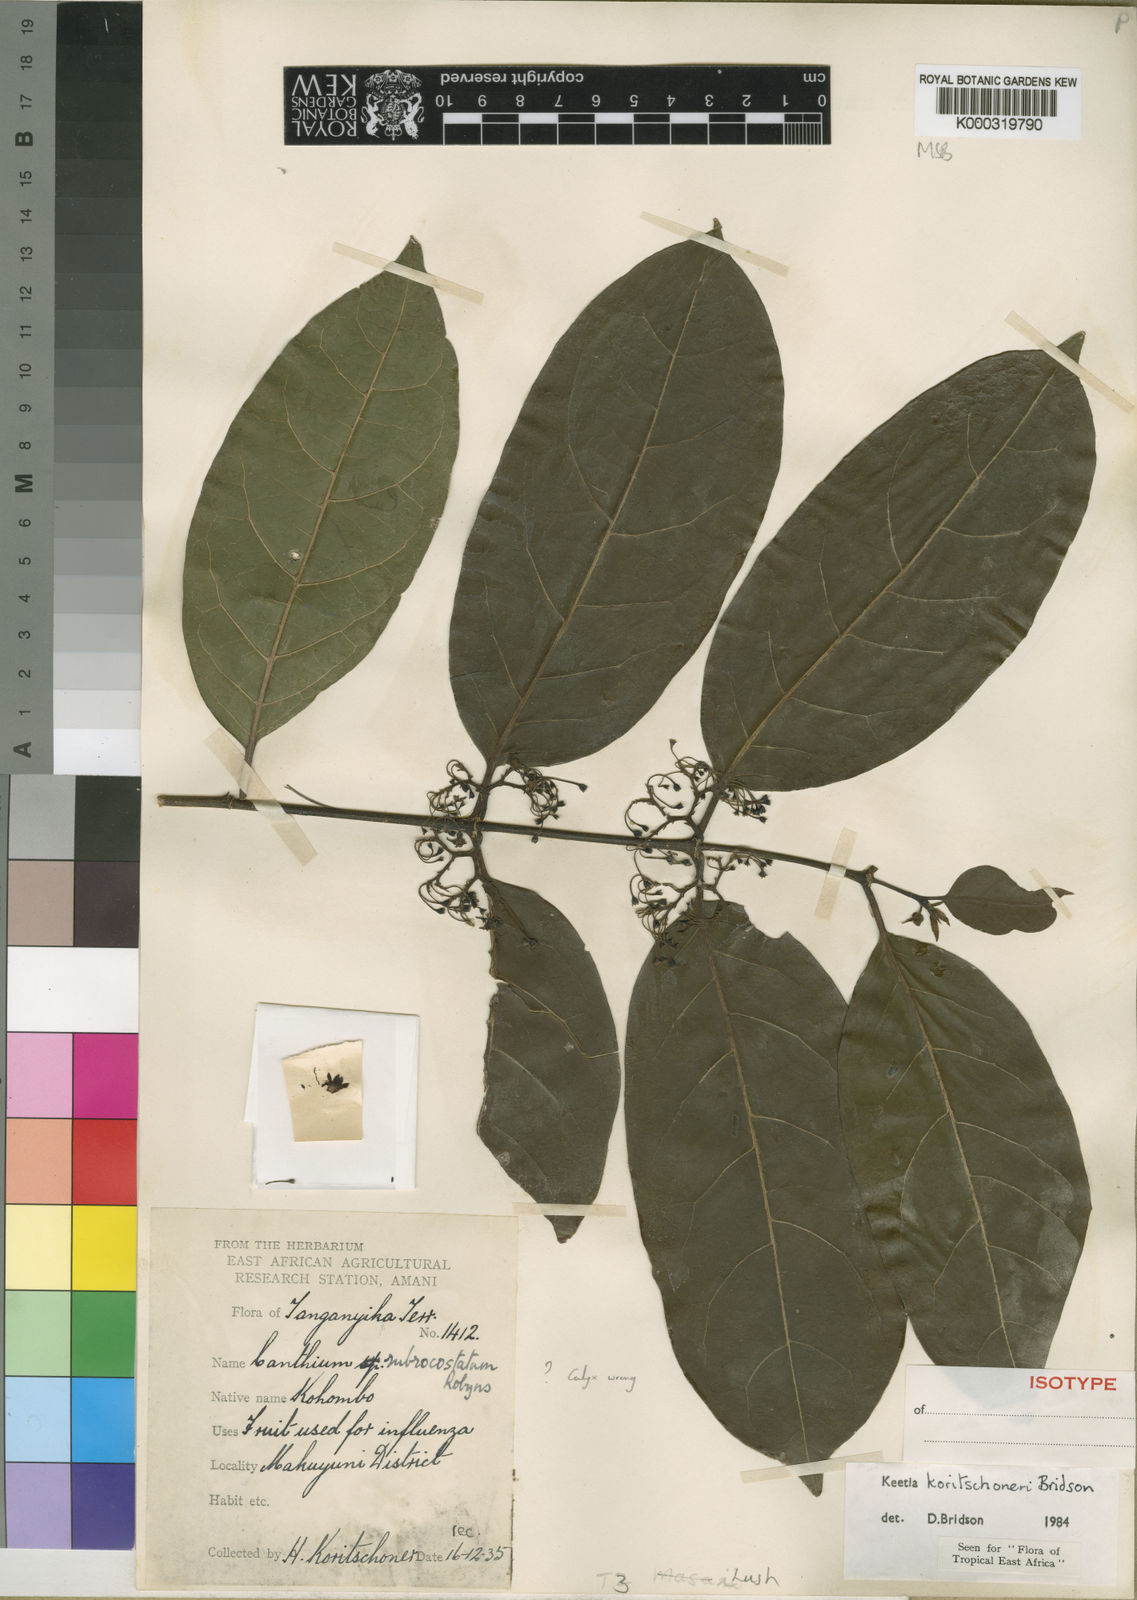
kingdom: Plantae
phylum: Tracheophyta
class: Magnoliopsida
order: Gentianales
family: Rubiaceae
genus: Keetia
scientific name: Keetia koritschoneri
